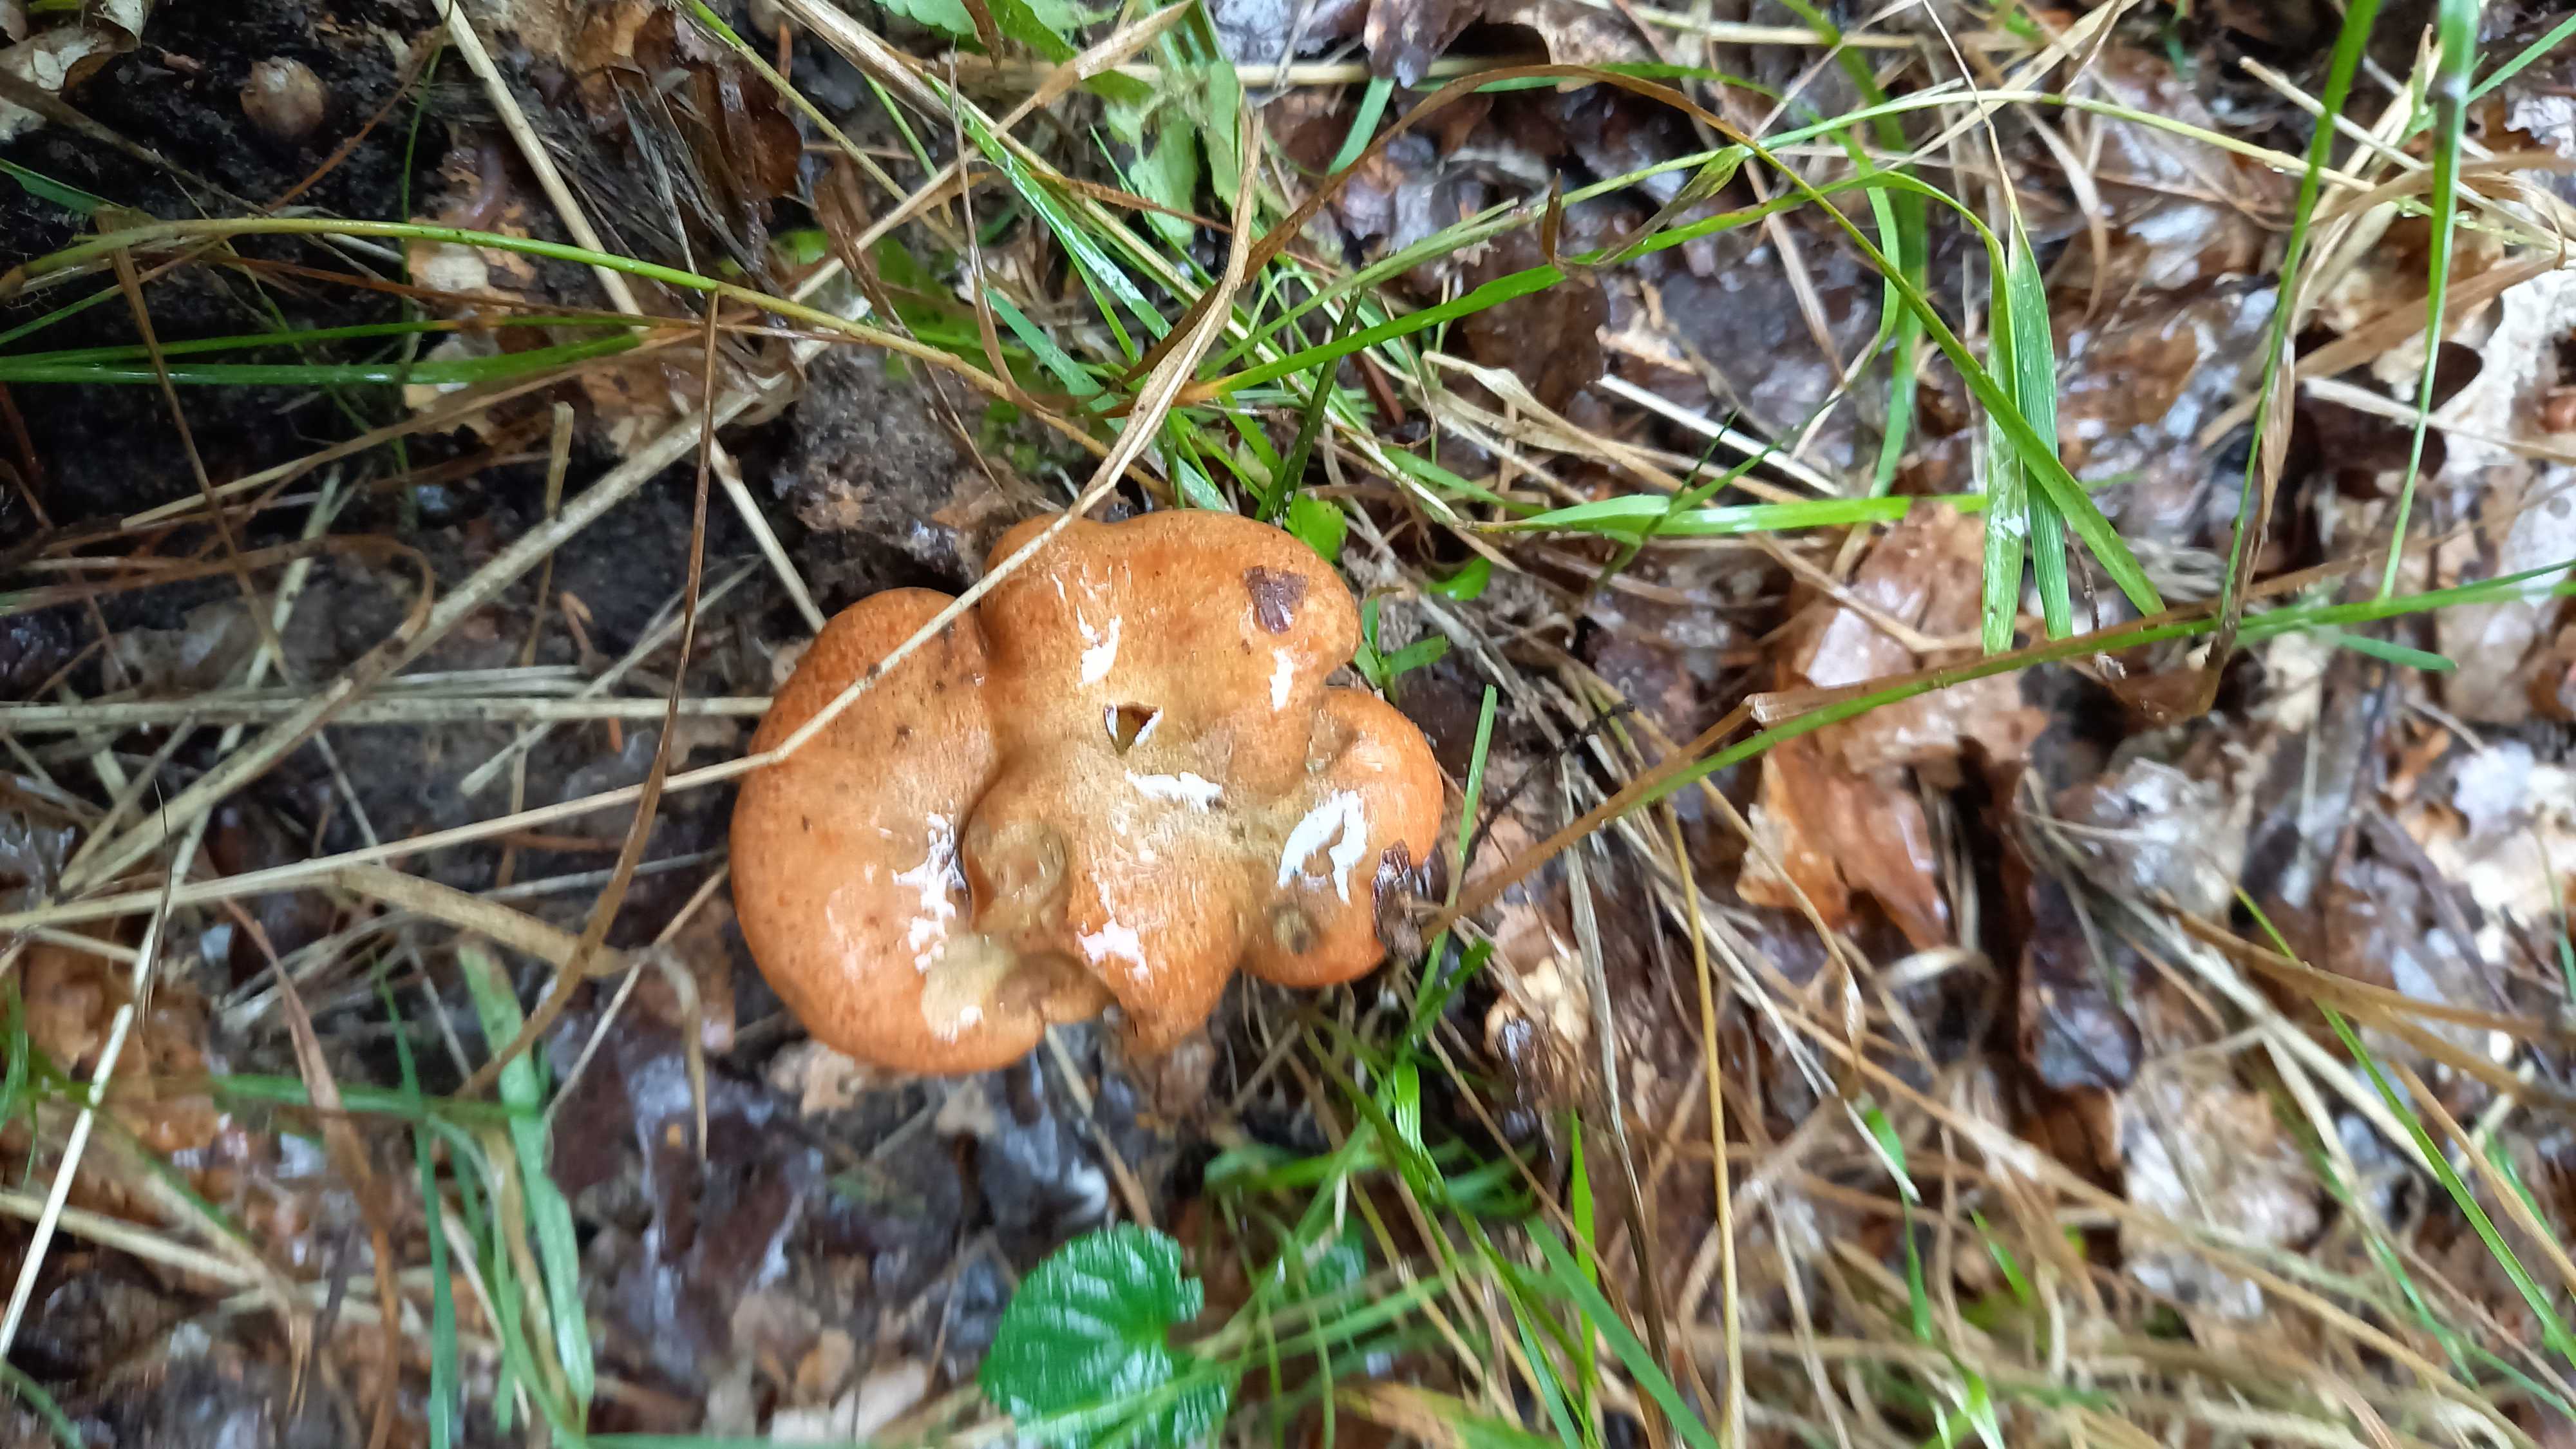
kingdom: Fungi
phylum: Ascomycota
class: Sordariomycetes
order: Hypocreales
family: Hypocreaceae
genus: Hypomyces
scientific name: Hypomyces lateritius
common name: mælkehat-snylteskorpe
